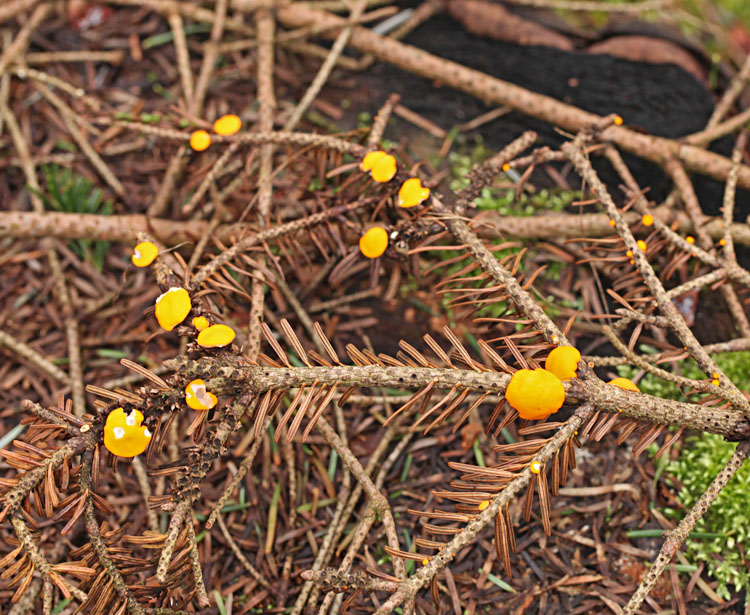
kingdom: Fungi
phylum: Ascomycota
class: Pezizomycetes
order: Pezizales
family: Sarcoscyphaceae
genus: Pithya
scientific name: Pithya vulgaris
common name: stor dukatbæger
